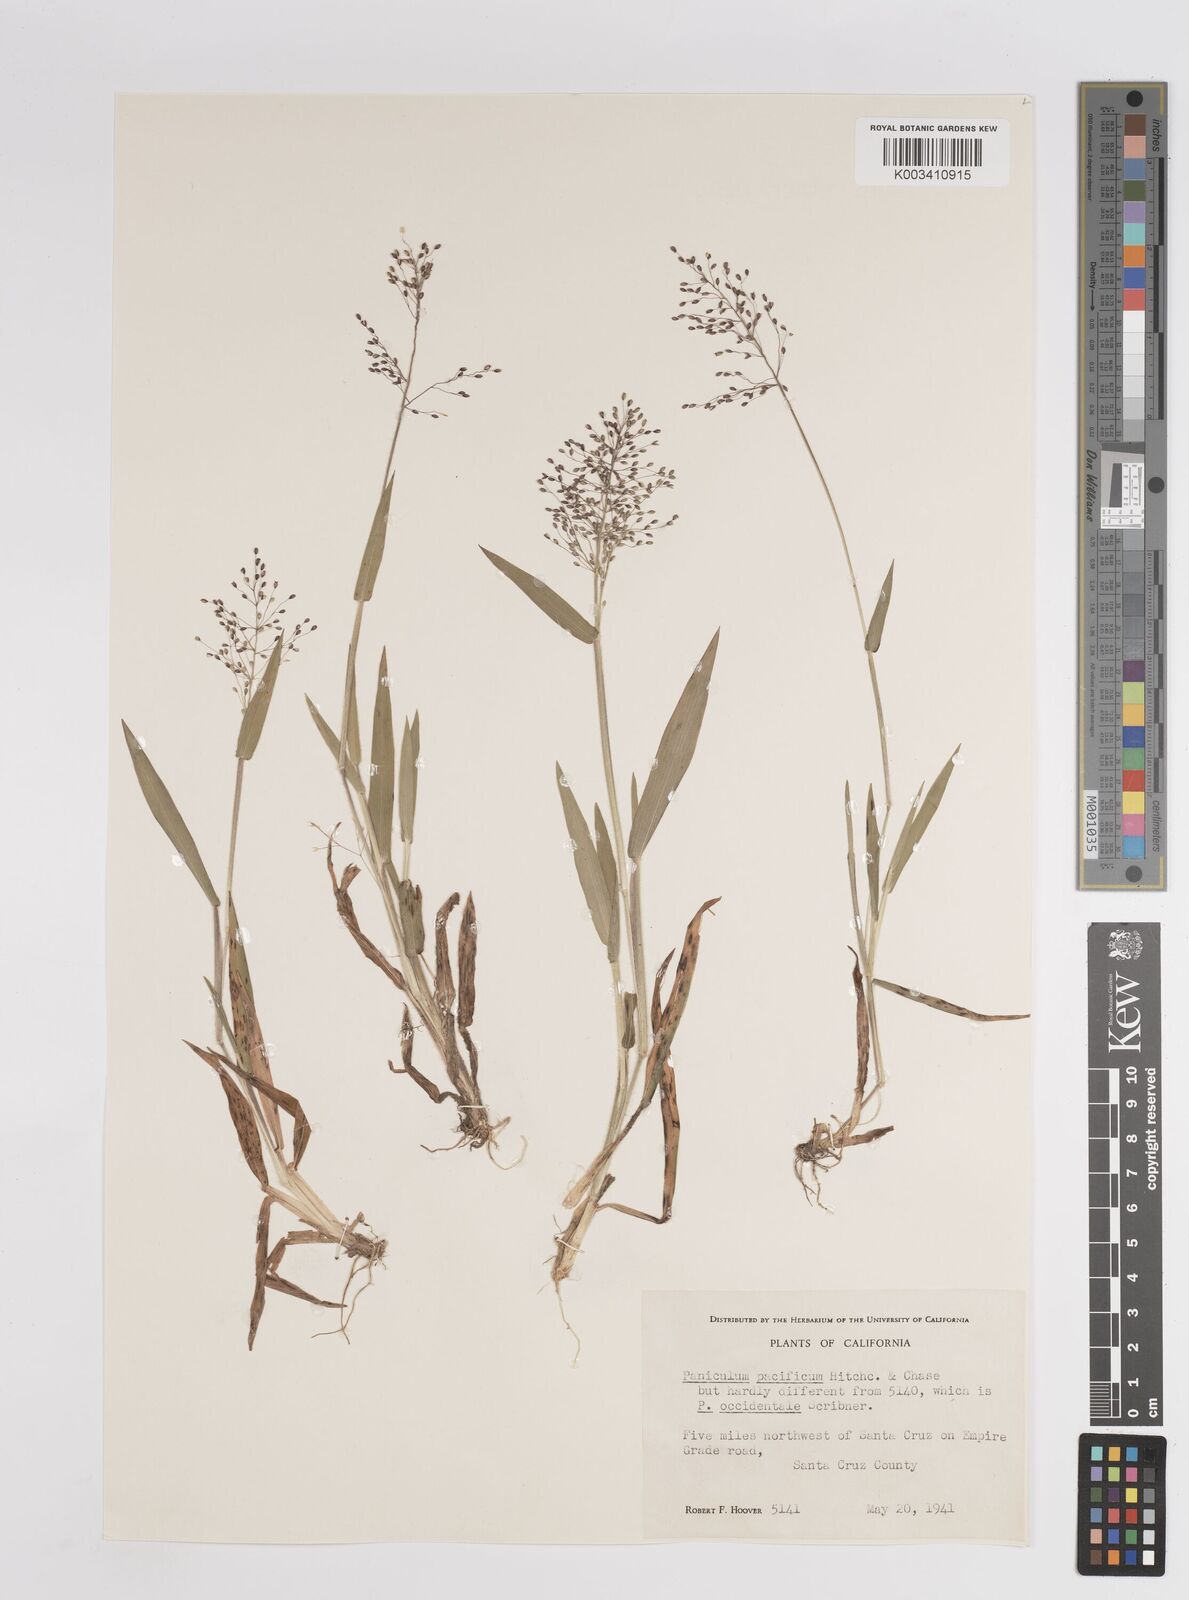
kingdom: Plantae
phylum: Tracheophyta
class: Liliopsida
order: Poales
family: Poaceae
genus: Dichanthelium
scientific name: Dichanthelium implicatum
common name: Slender-stemmed panicgrass
